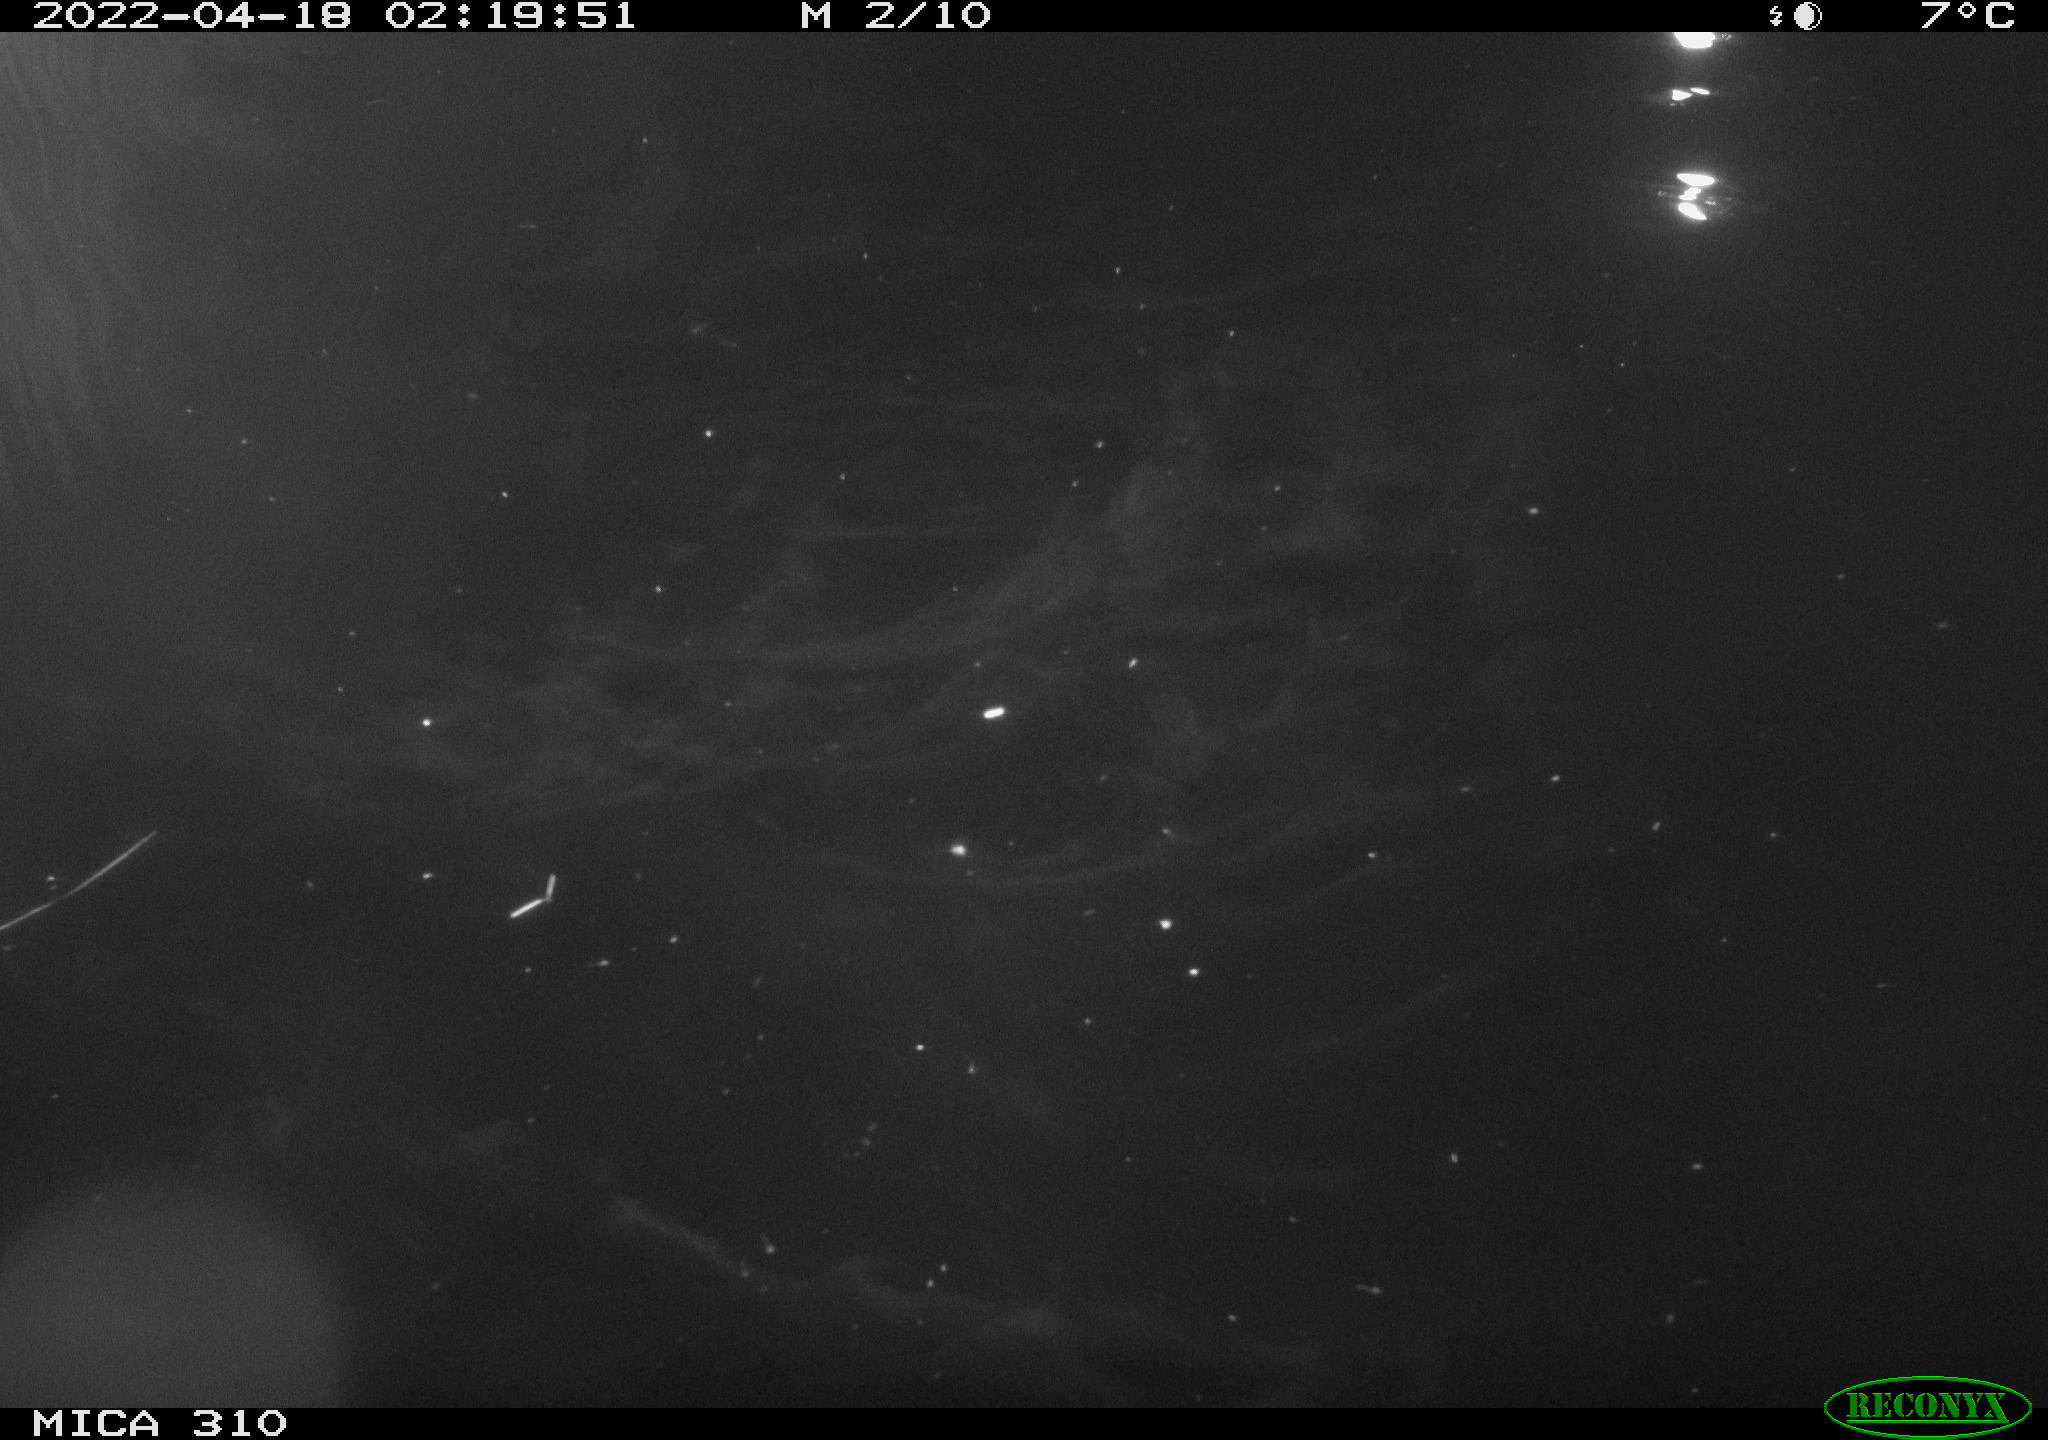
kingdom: Animalia
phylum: Chordata
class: Aves
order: Anseriformes
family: Anatidae
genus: Anas
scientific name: Anas platyrhynchos
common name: Mallard
